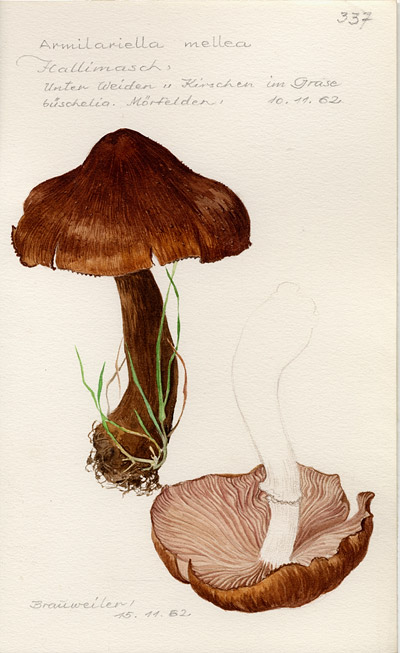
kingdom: Fungi
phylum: Basidiomycota
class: Agaricomycetes
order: Agaricales
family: Physalacriaceae
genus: Armillaria
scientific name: Armillaria mellea
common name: Honey fungus
